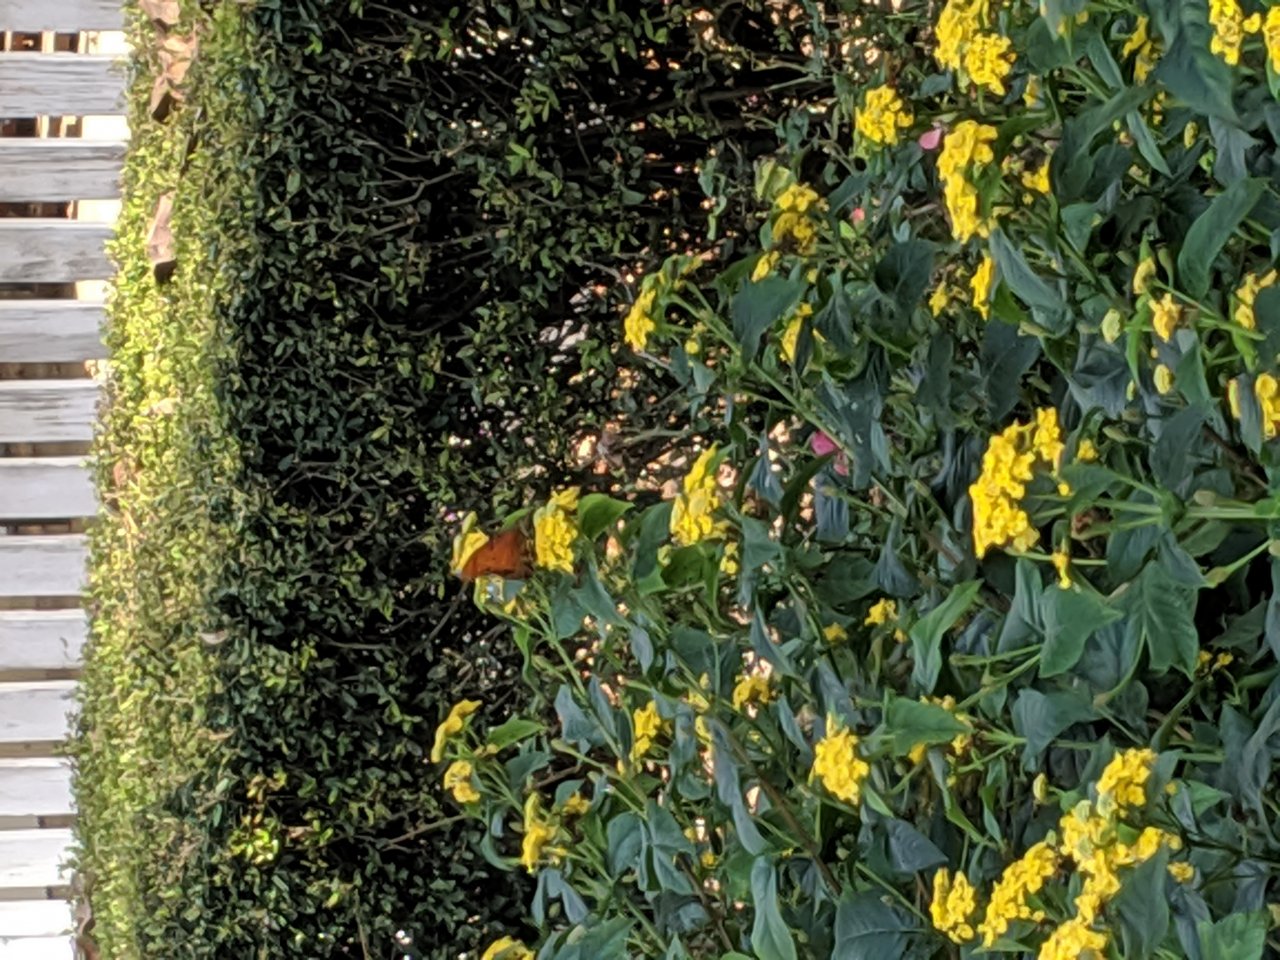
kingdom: Animalia
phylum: Arthropoda
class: Insecta
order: Lepidoptera
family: Nymphalidae
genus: Dione
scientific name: Dione vanillae
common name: Gulf Fritillary
